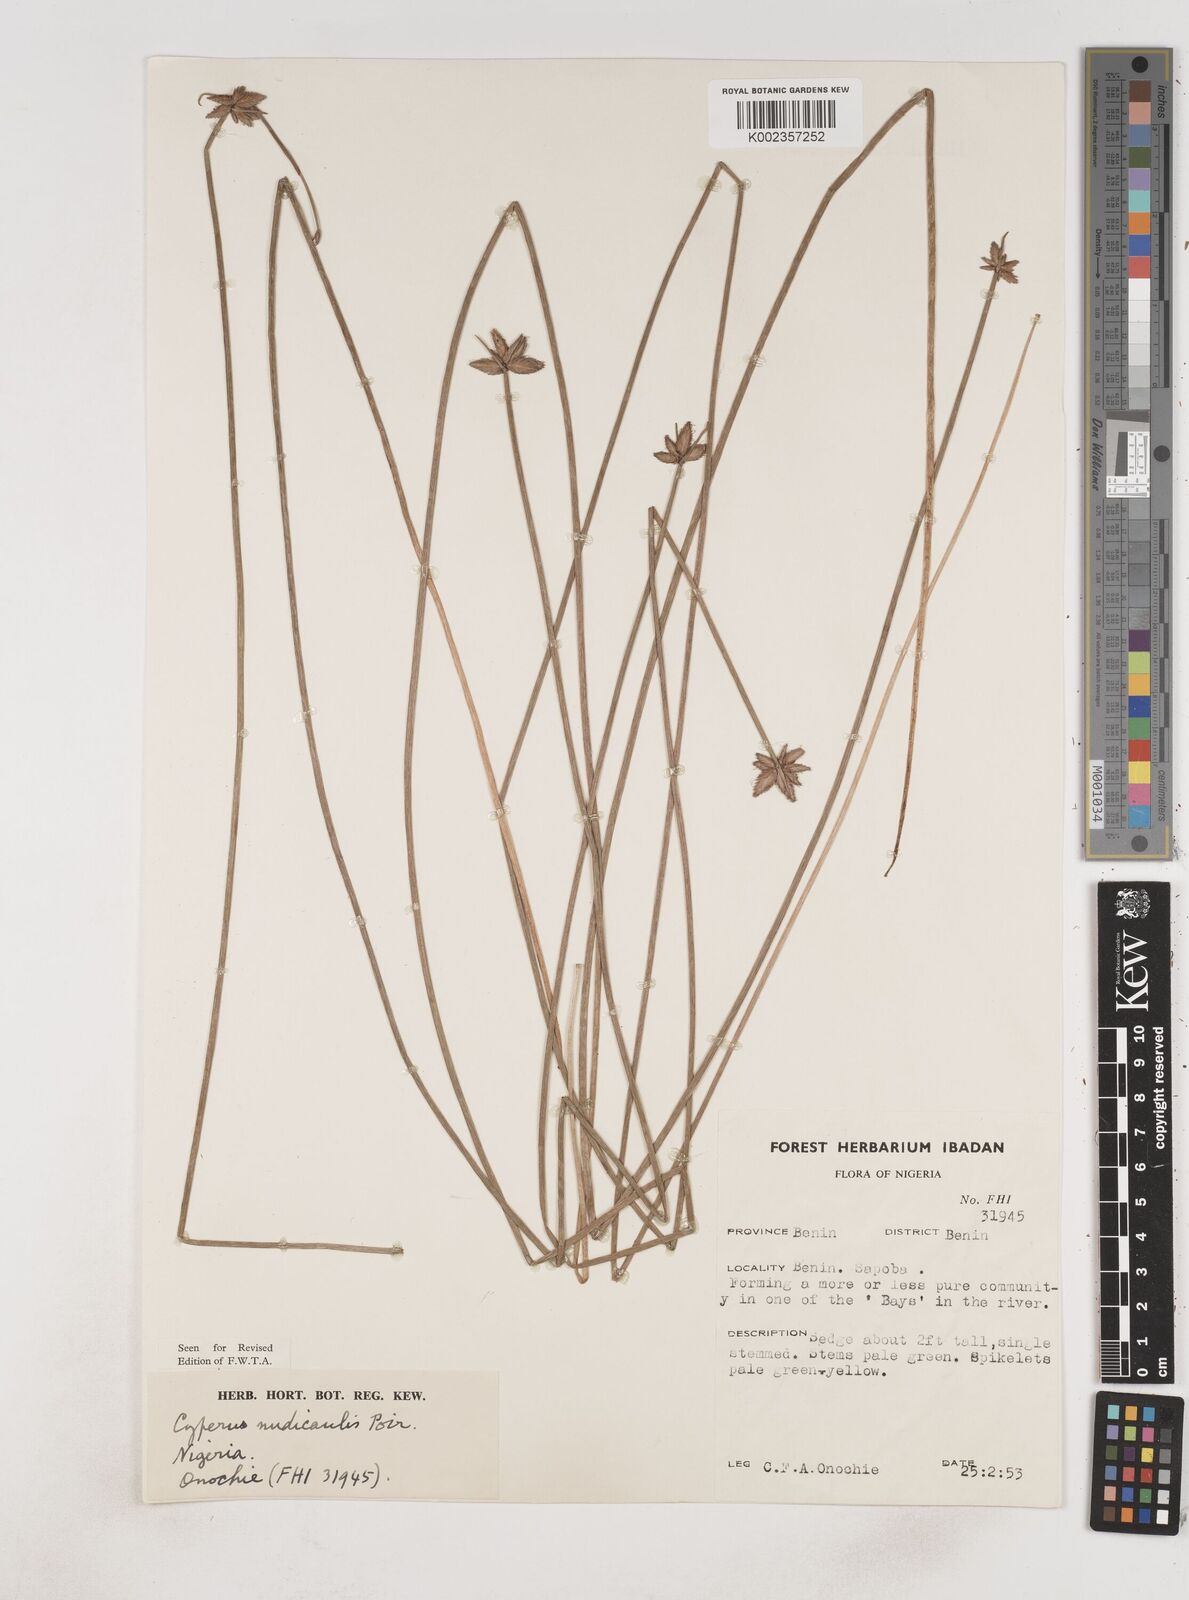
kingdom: Plantae
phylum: Tracheophyta
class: Liliopsida
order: Poales
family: Cyperaceae
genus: Cyperus
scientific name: Cyperus pectinatus
